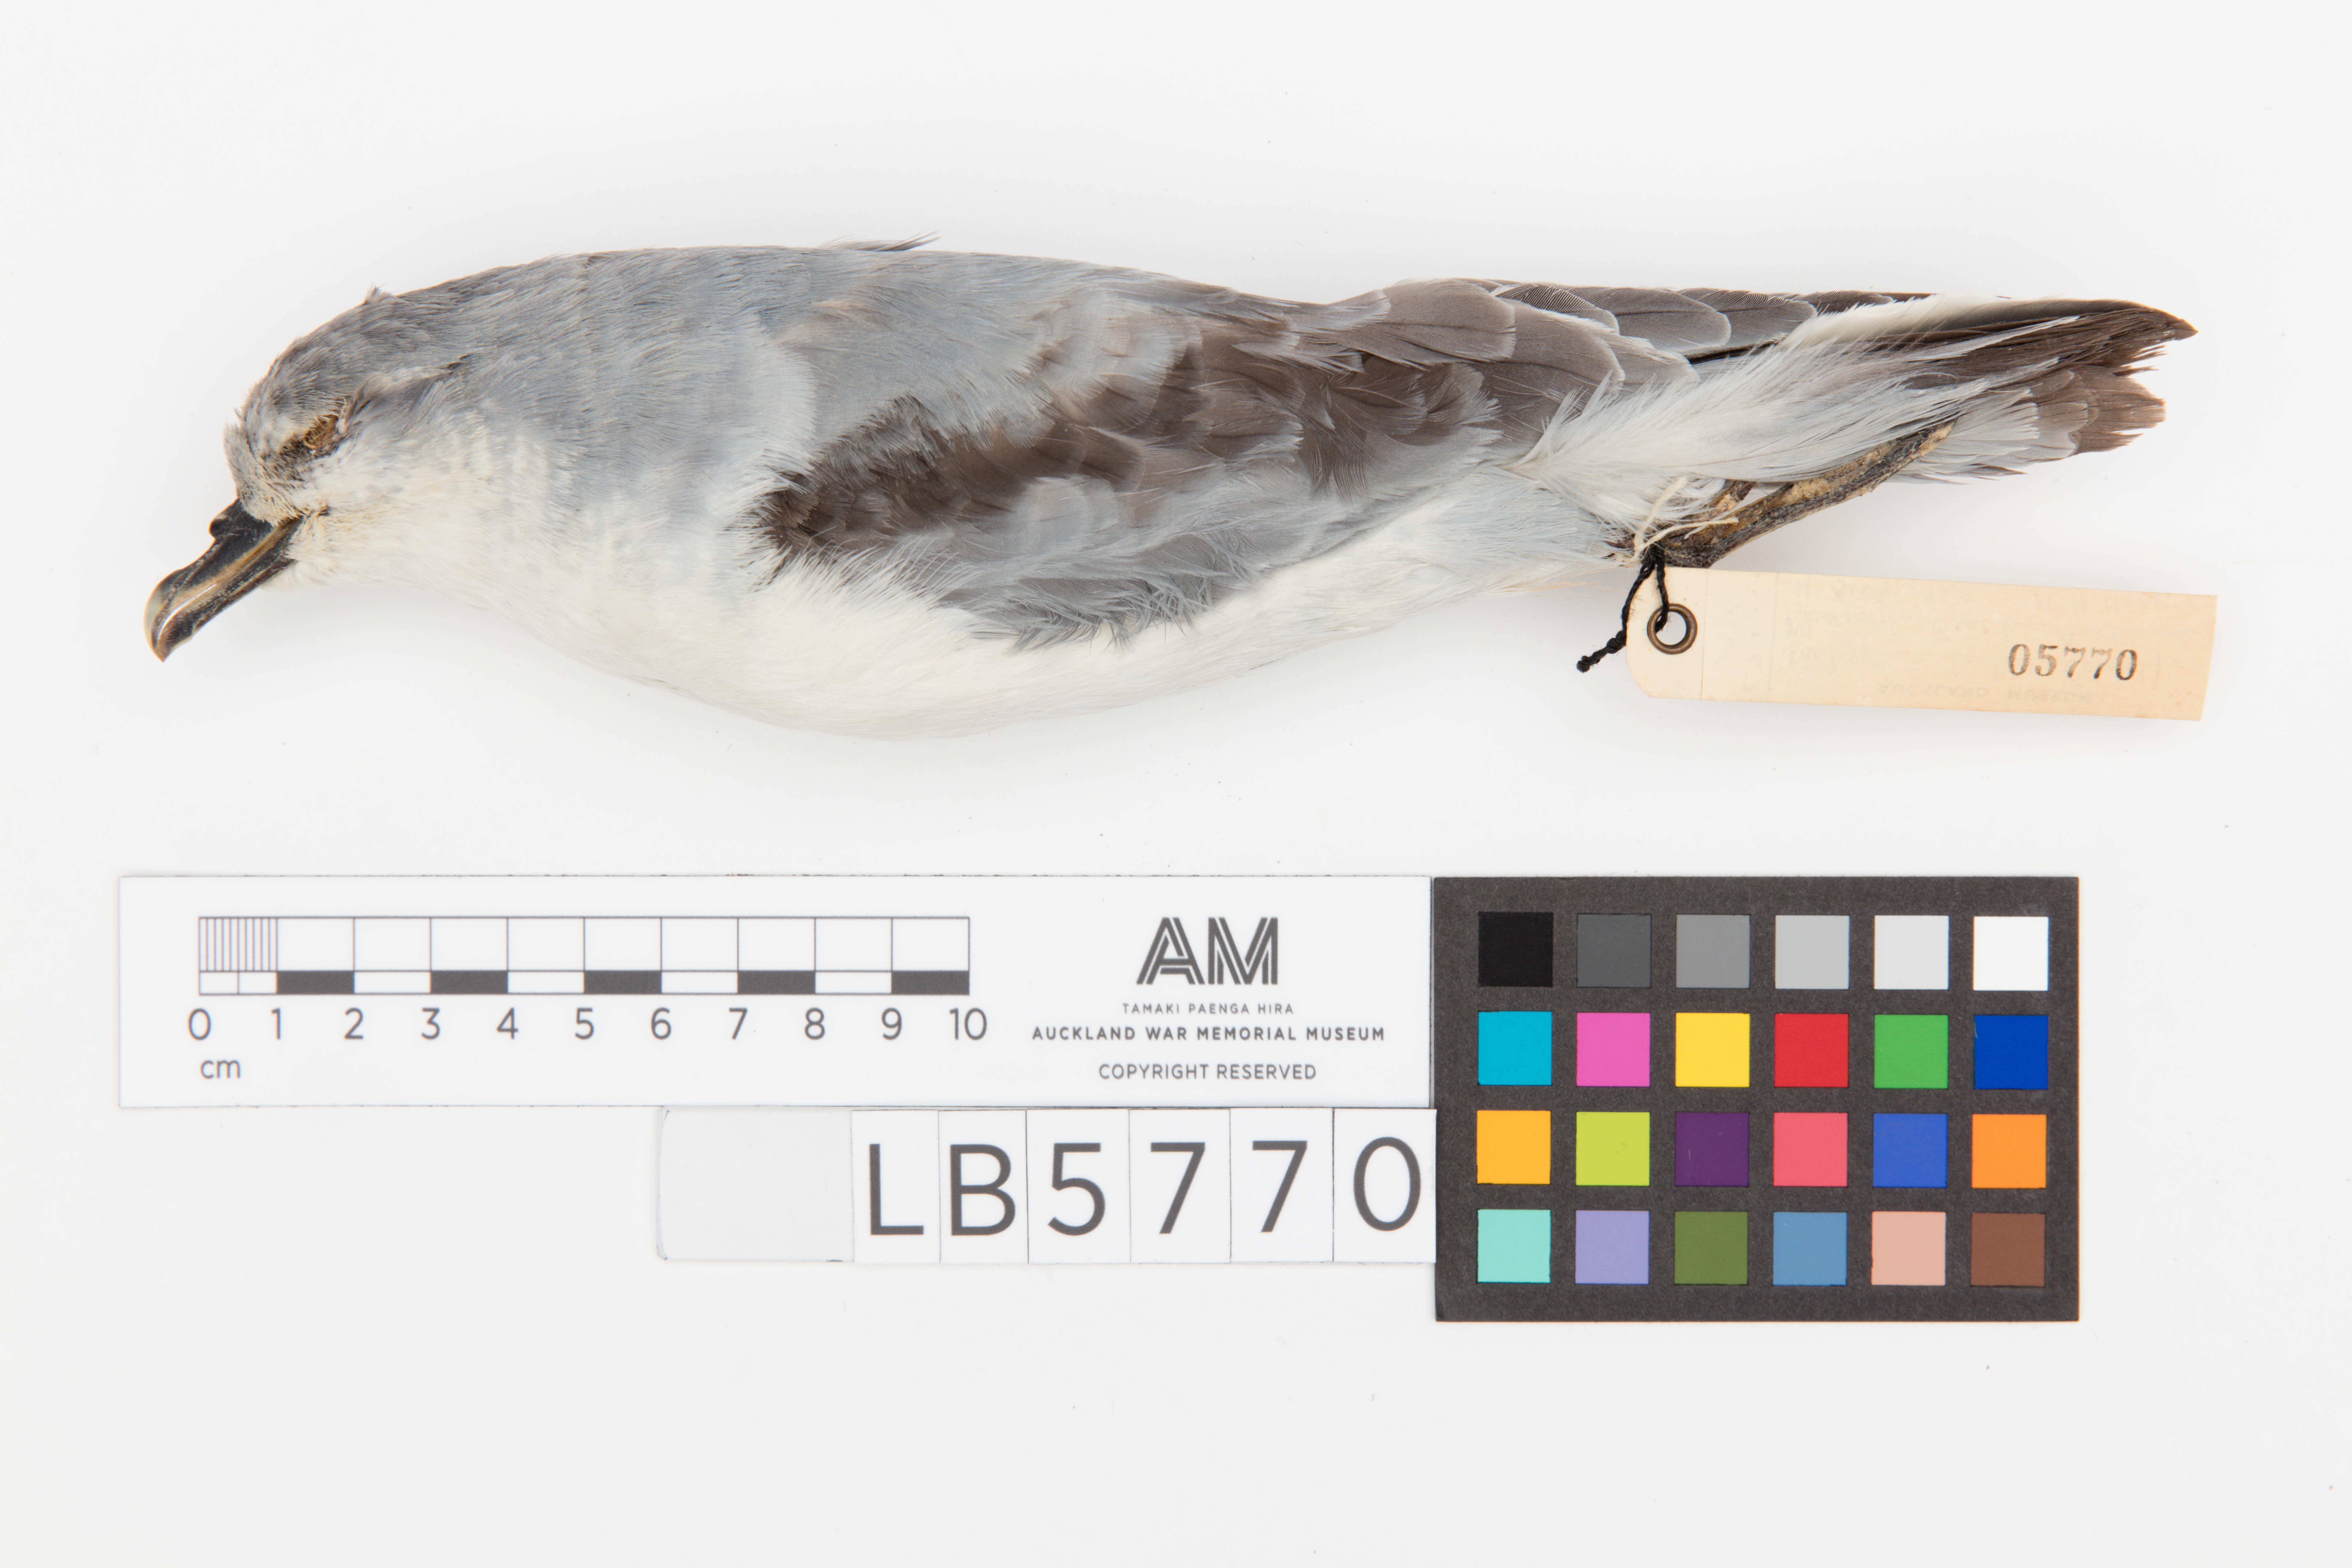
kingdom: Animalia
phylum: Chordata
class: Aves
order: Procellariiformes
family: Procellariidae
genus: Pachyptila
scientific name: Pachyptila turtur
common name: Fairy prion
